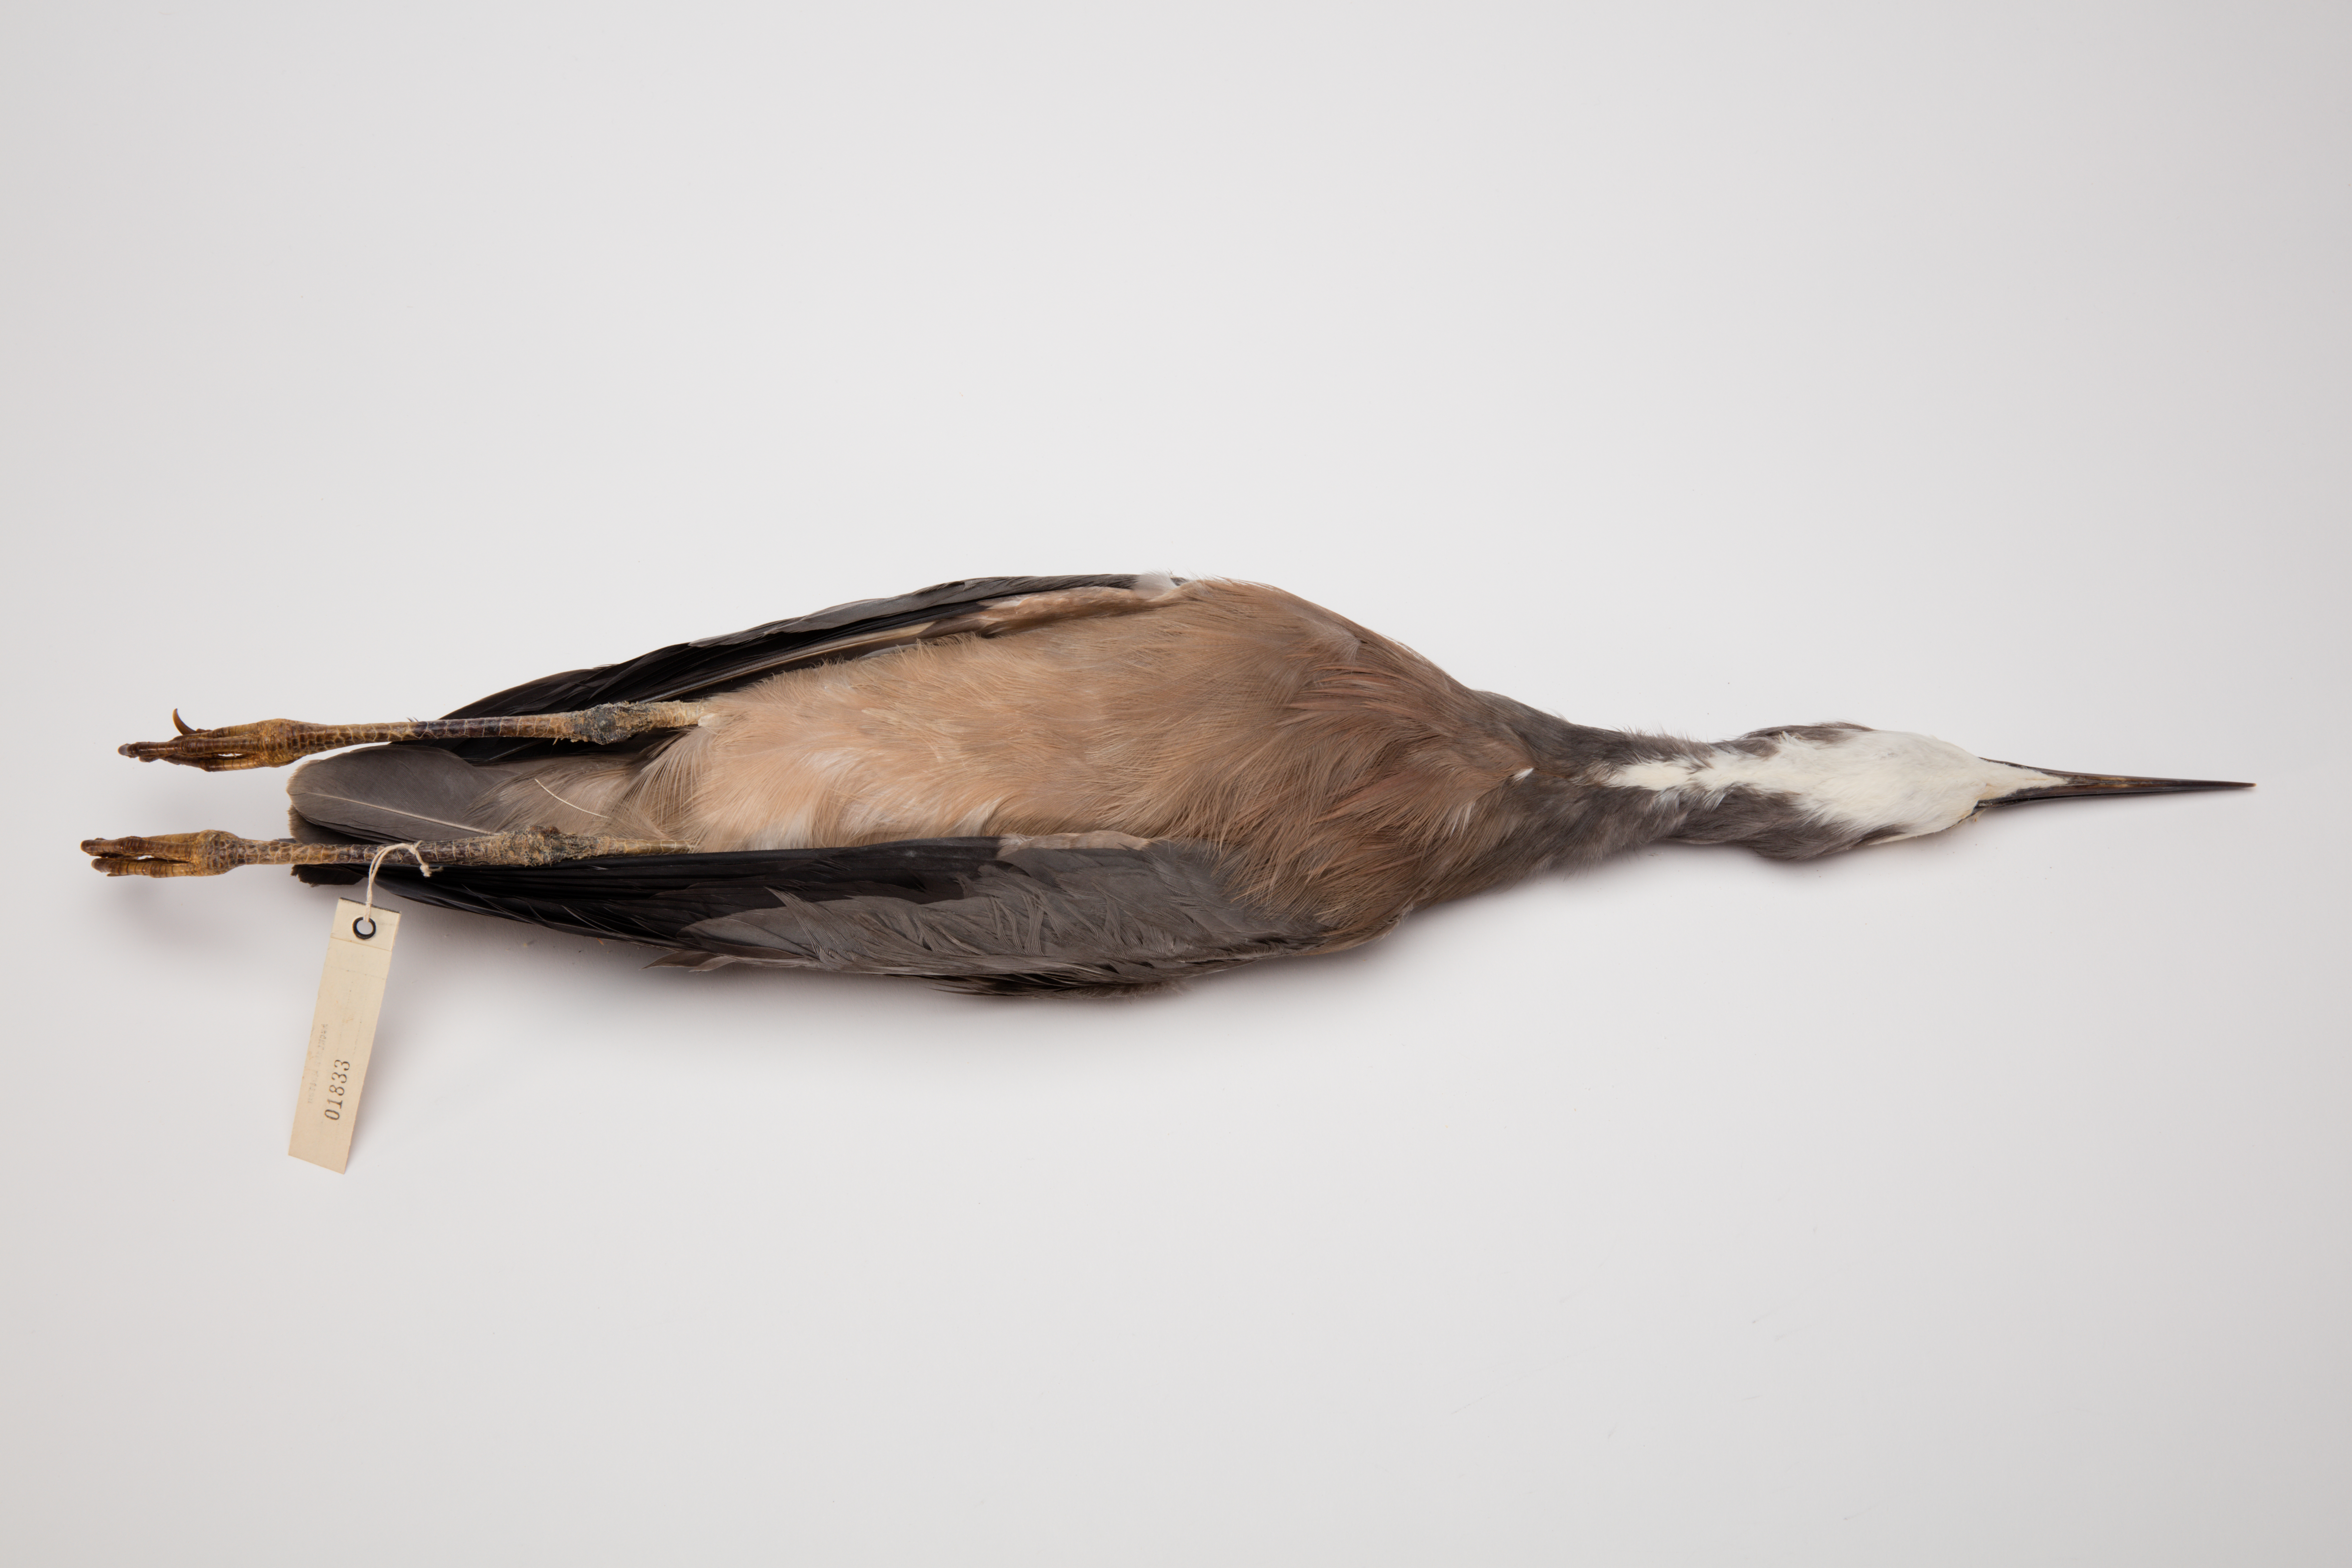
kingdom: Animalia
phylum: Chordata
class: Aves
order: Pelecaniformes
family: Ardeidae
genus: Egretta
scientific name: Egretta novaehollandiae
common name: White-faced heron
